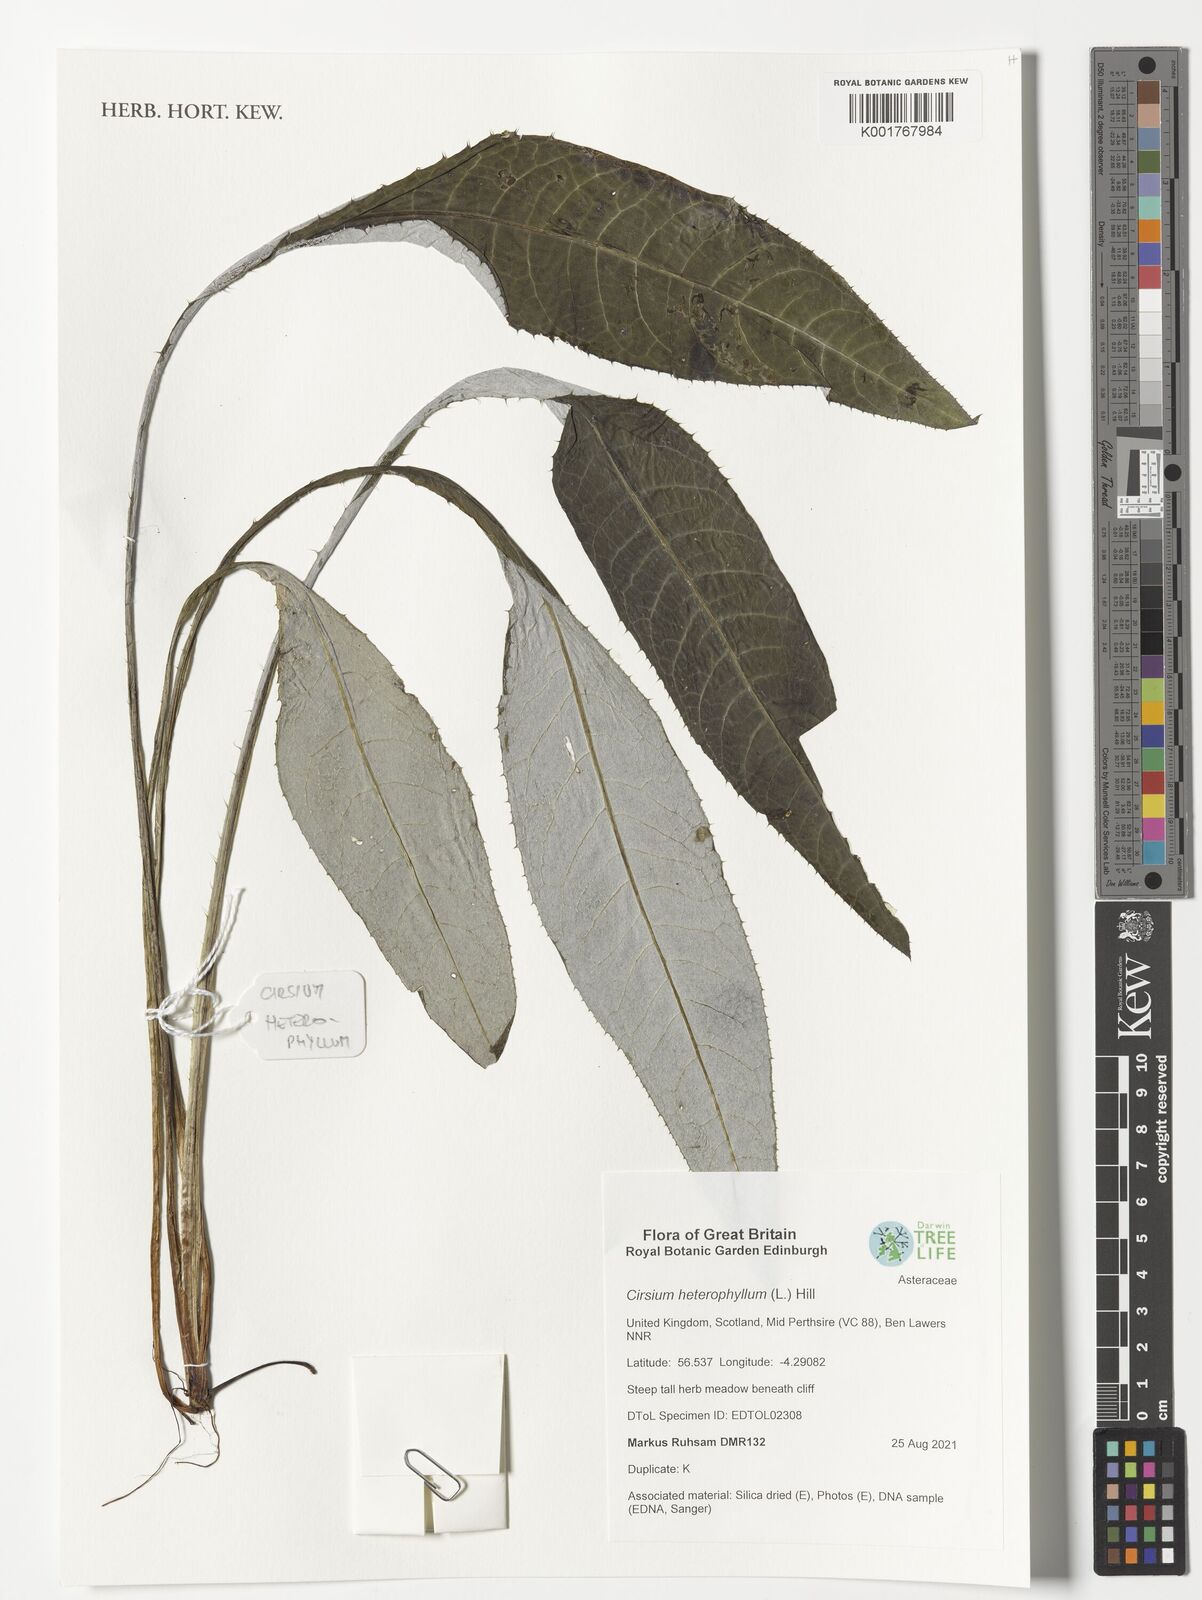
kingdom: Plantae
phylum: Tracheophyta
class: Magnoliopsida
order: Asterales
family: Asteraceae
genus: Cirsium
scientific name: Cirsium heterophyllum
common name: Melancholy thistle
